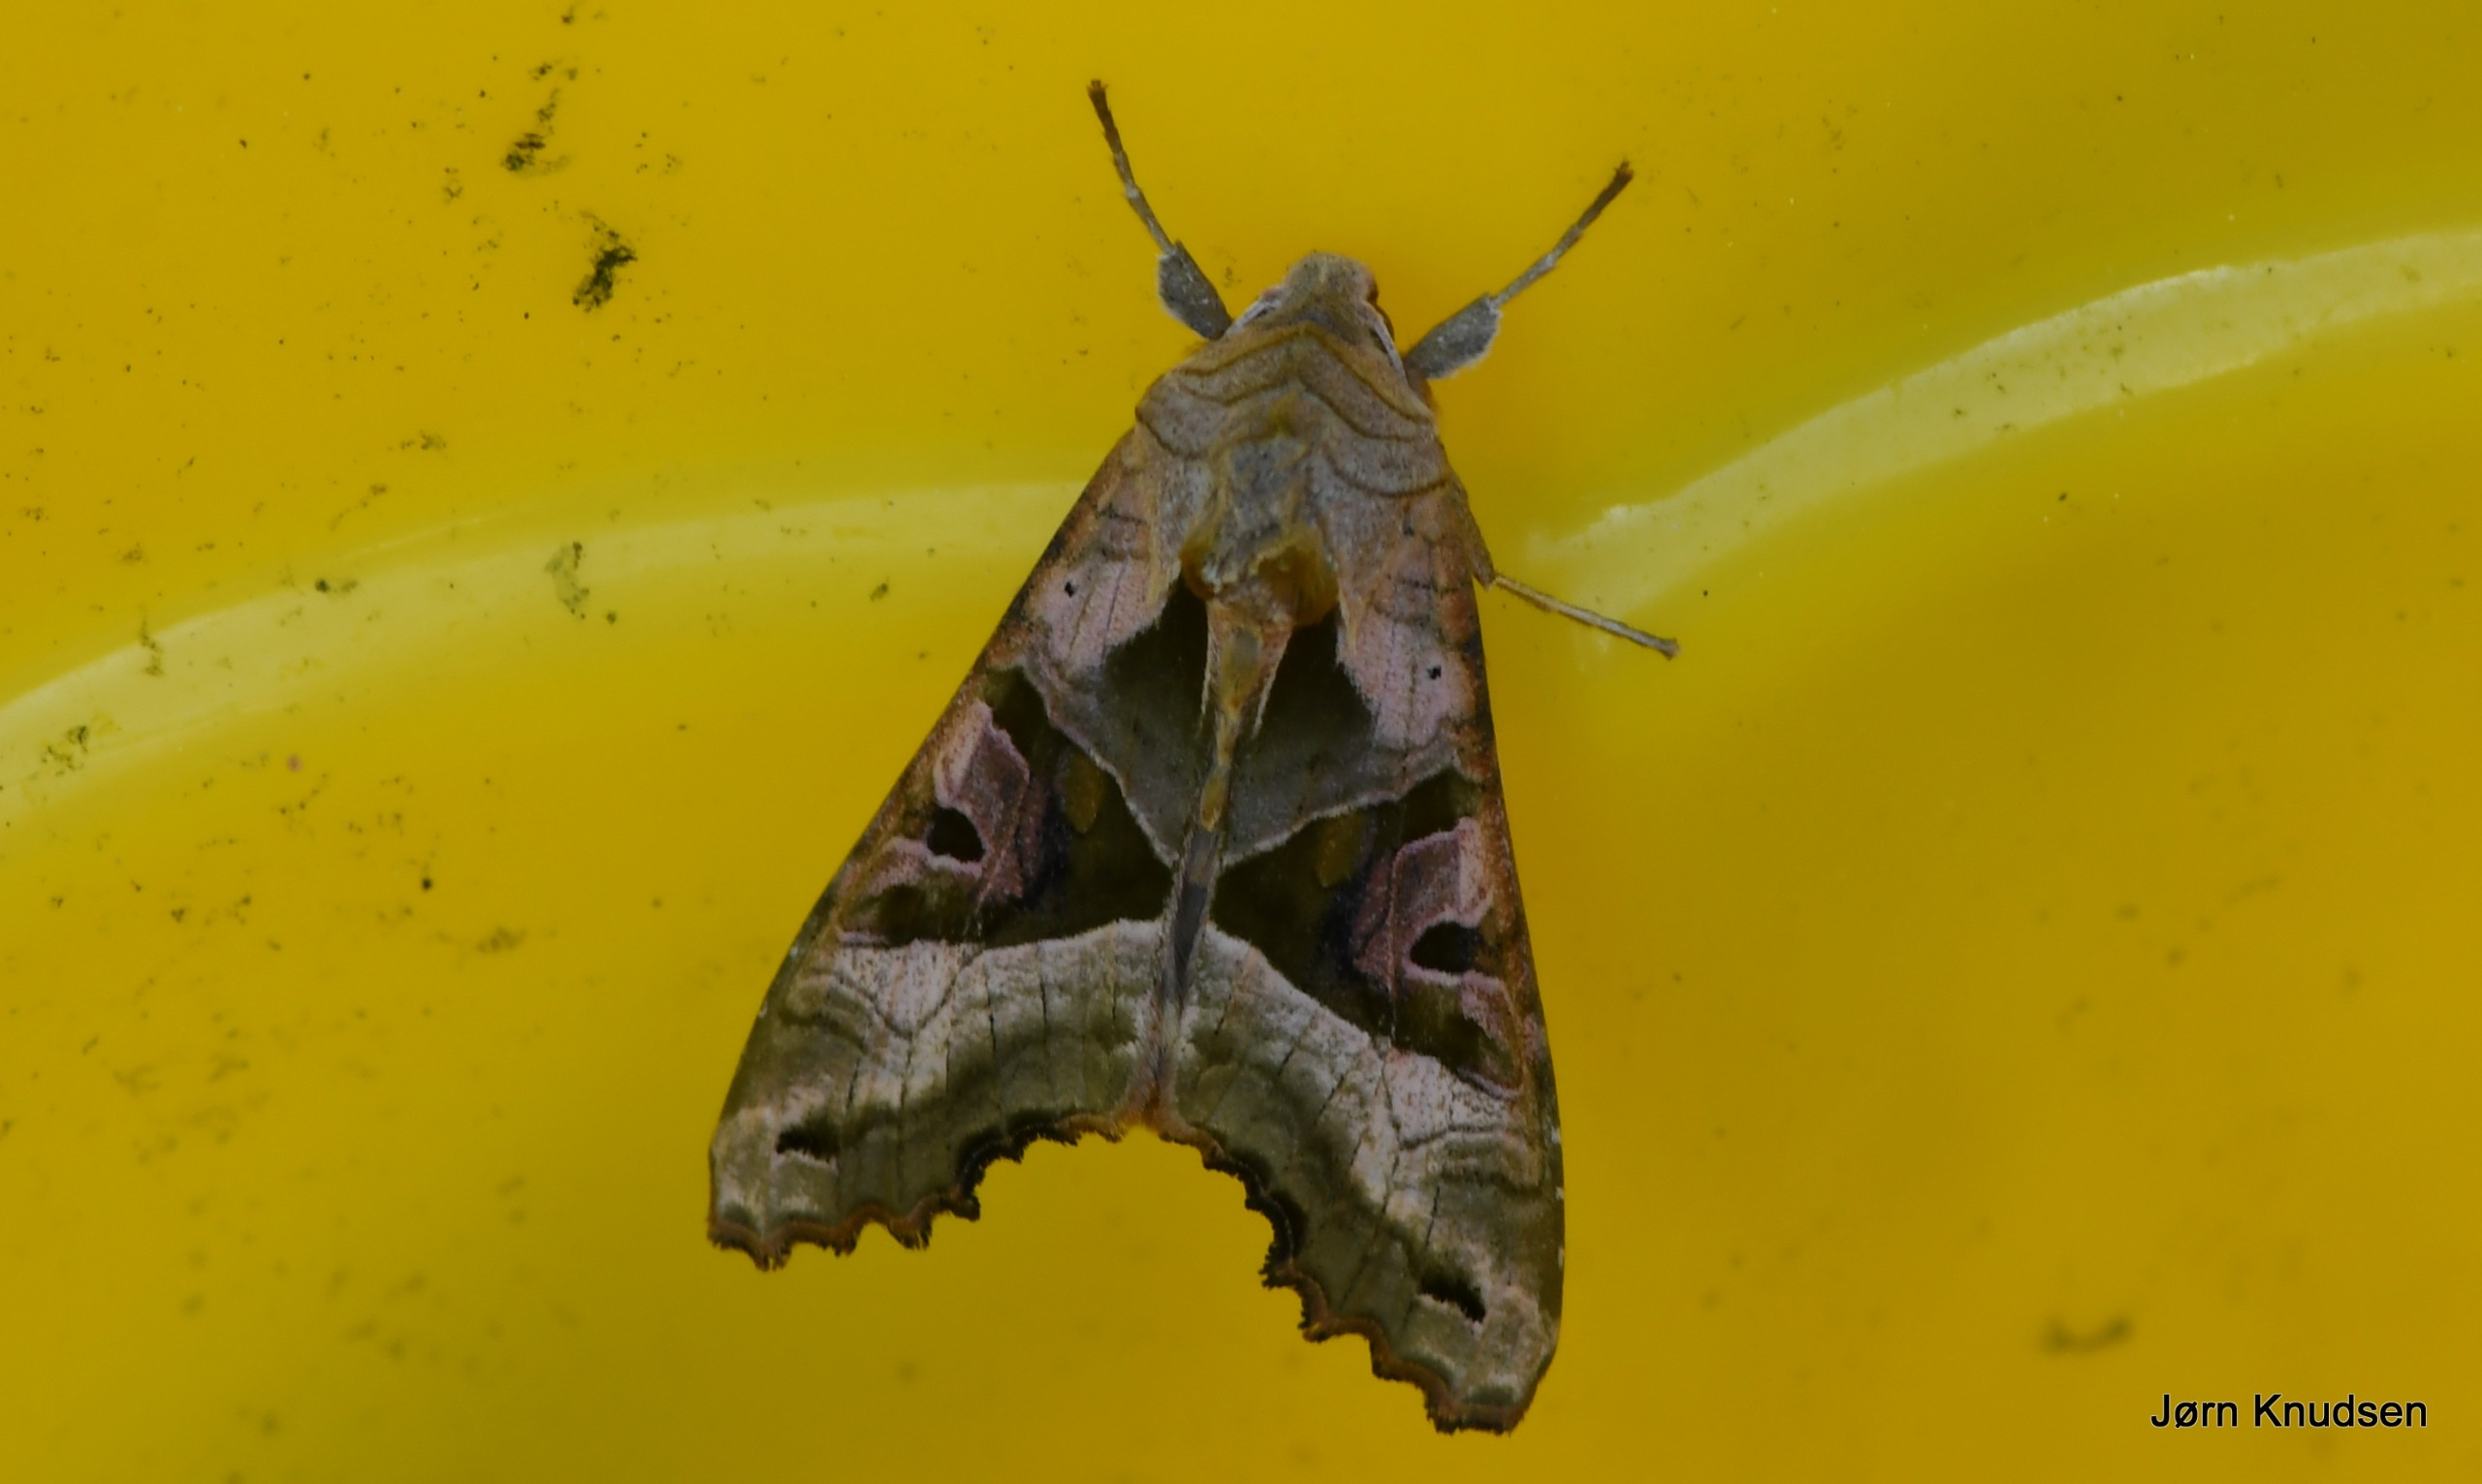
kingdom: Animalia
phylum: Arthropoda
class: Insecta
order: Lepidoptera
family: Noctuidae
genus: Phlogophora
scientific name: Phlogophora meticulosa
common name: Agatugle
